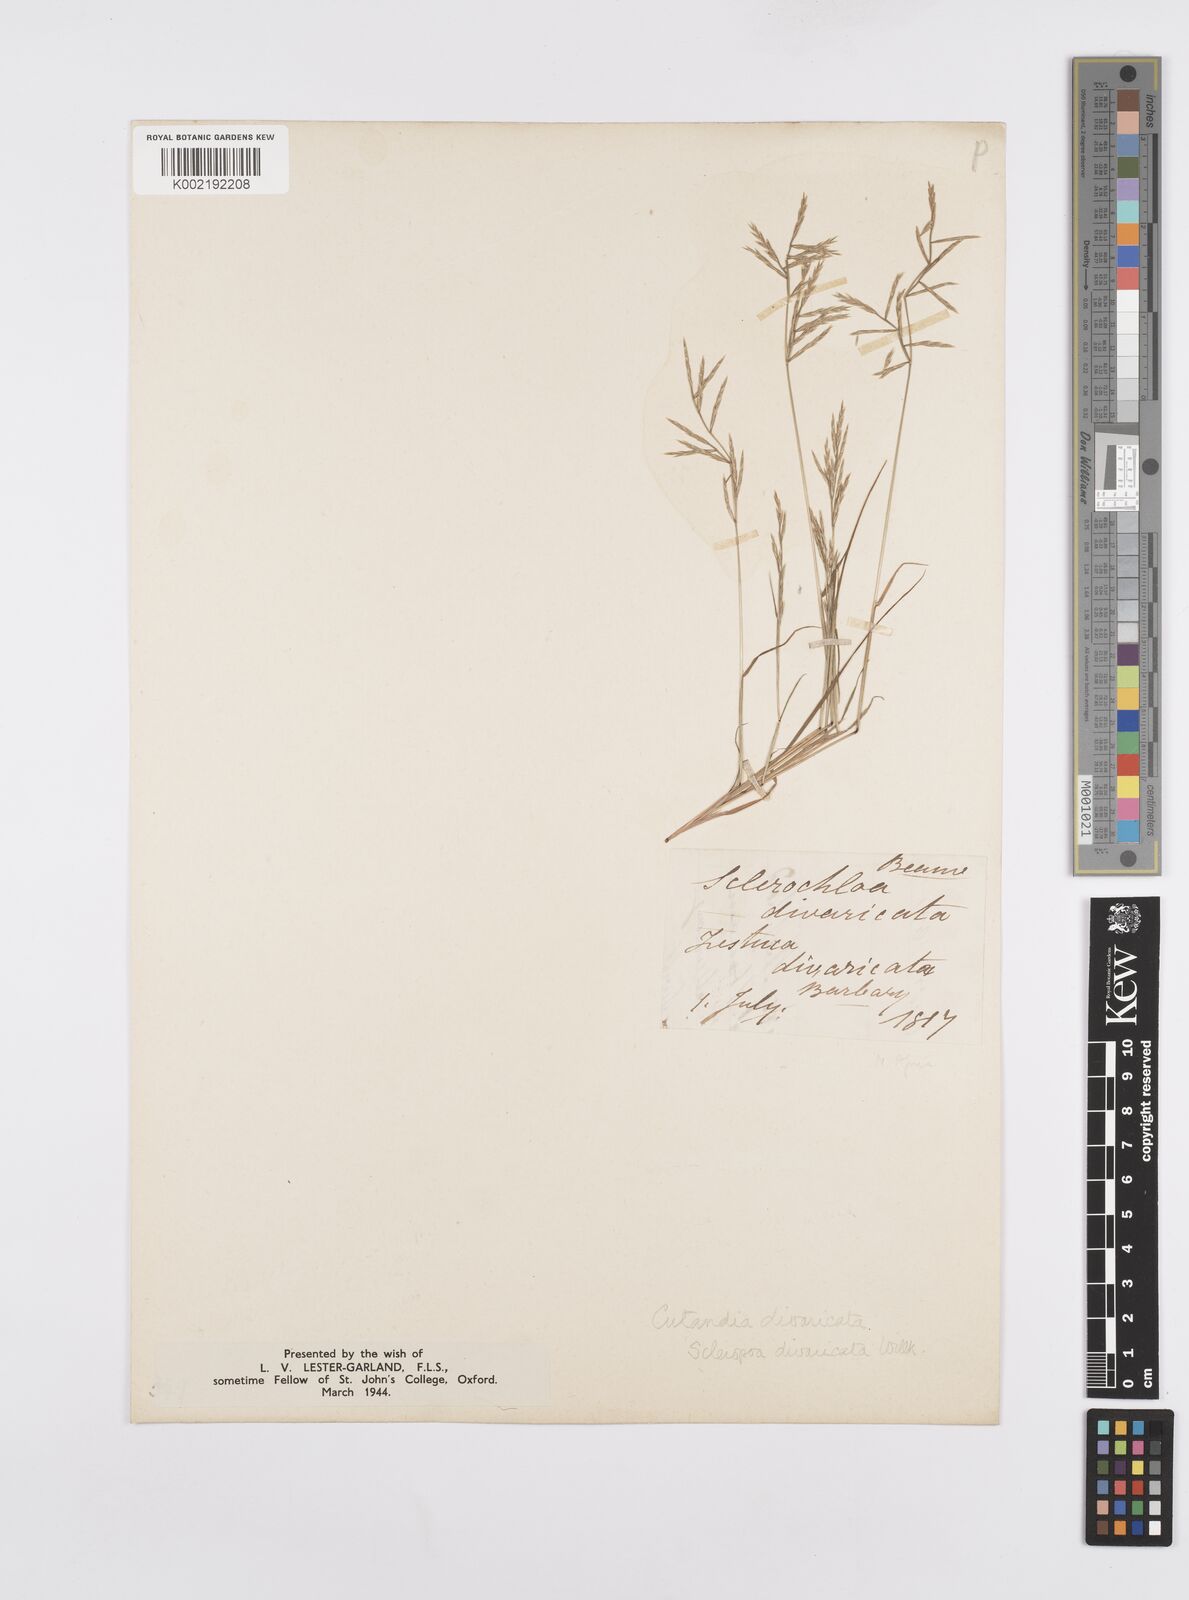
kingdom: Plantae
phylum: Tracheophyta
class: Liliopsida
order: Poales
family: Poaceae
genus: Cutandia
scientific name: Cutandia divaricata
